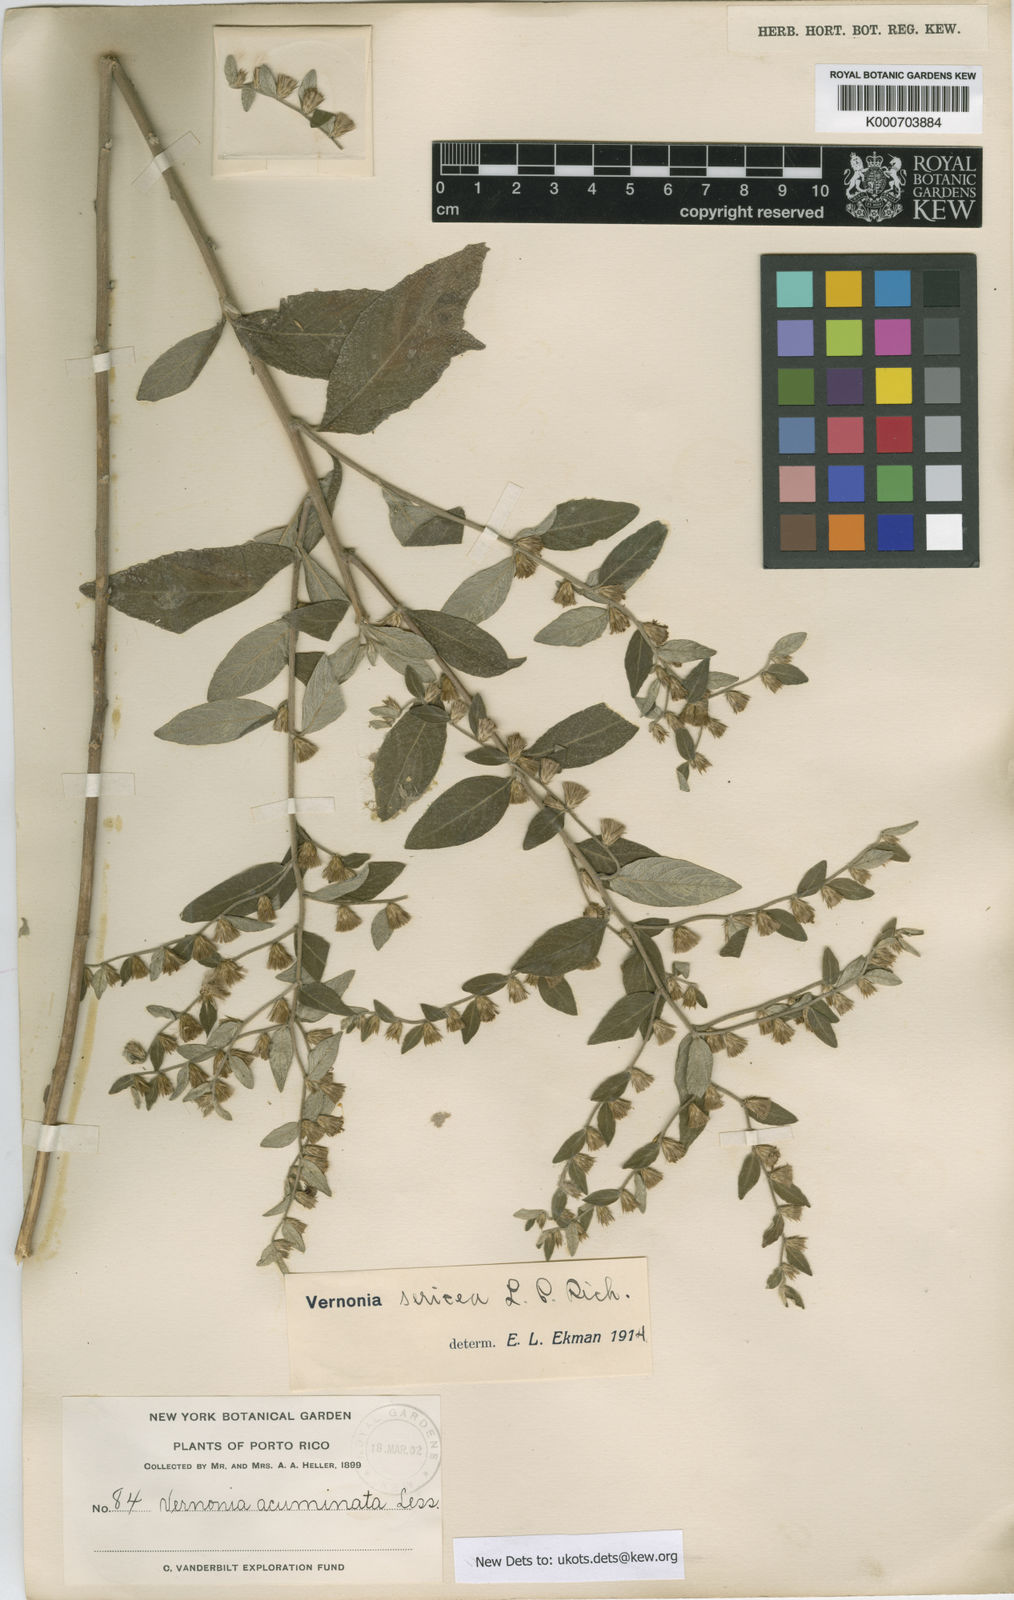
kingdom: Plantae
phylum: Tracheophyta
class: Magnoliopsida
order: Asterales
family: Asteraceae
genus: Lepidaploa
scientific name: Lepidaploa sericea
